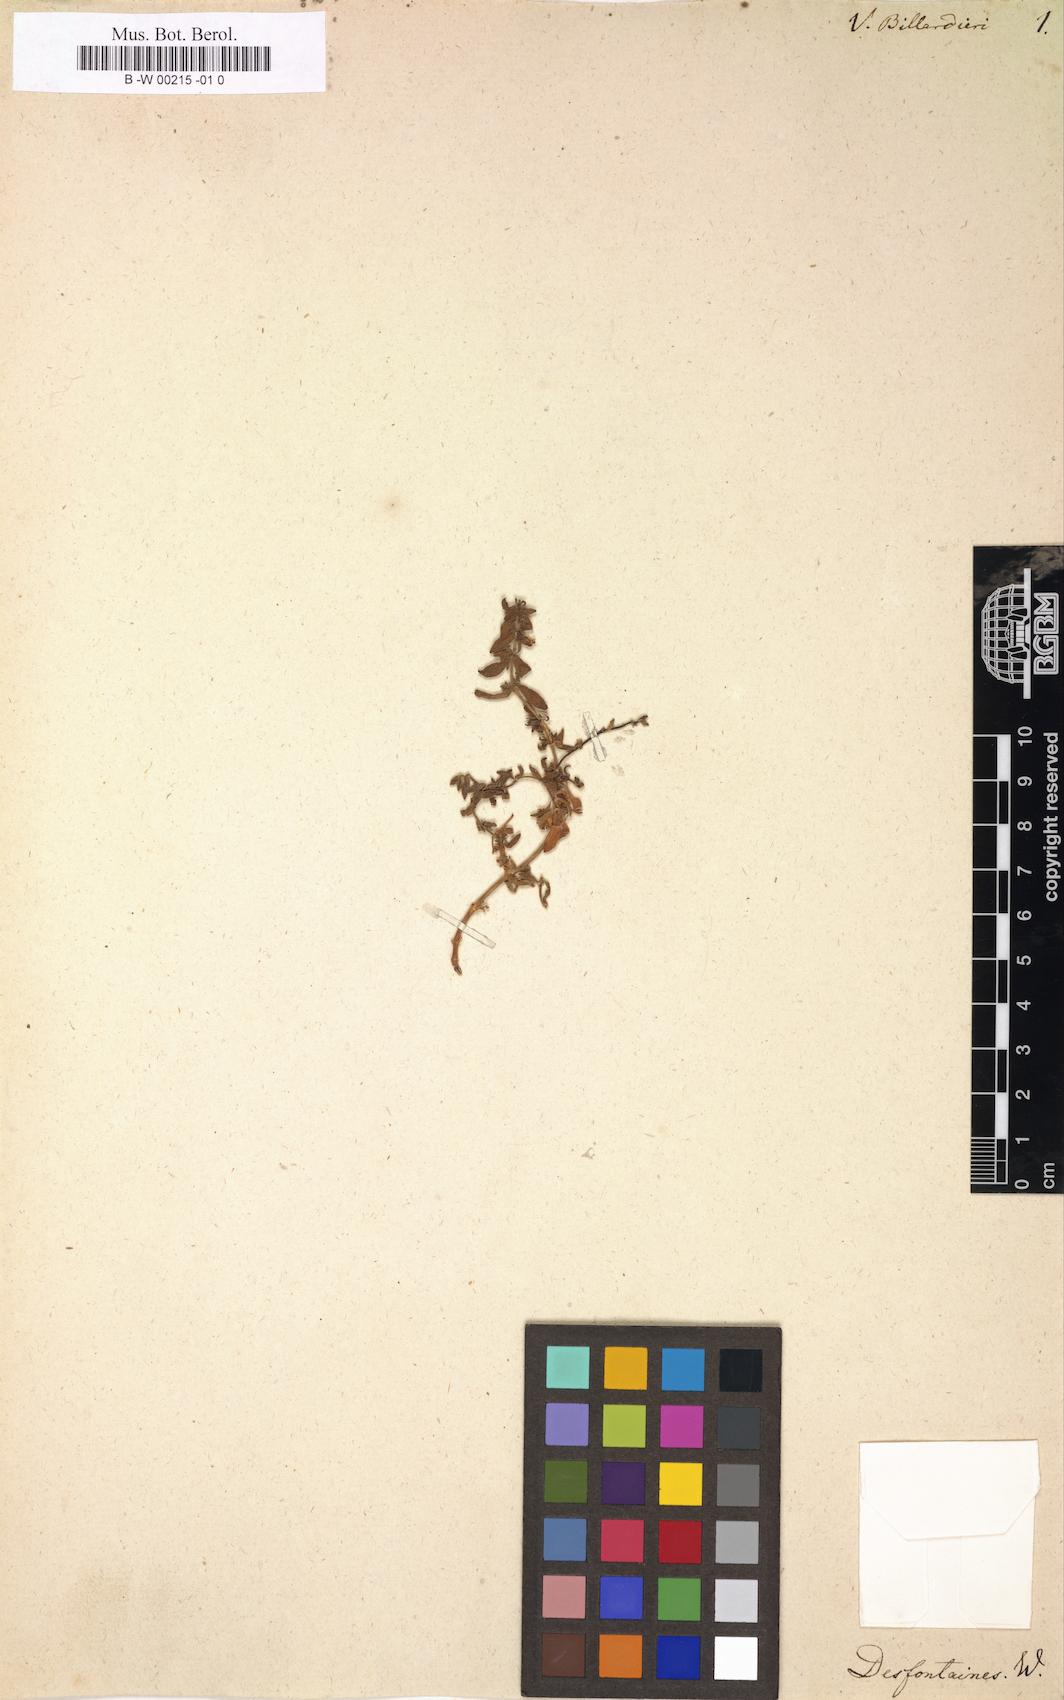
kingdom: Plantae
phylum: Tracheophyta
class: Magnoliopsida
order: Lamiales
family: Plantaginaceae
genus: Veronica
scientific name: Veronica billardieri
